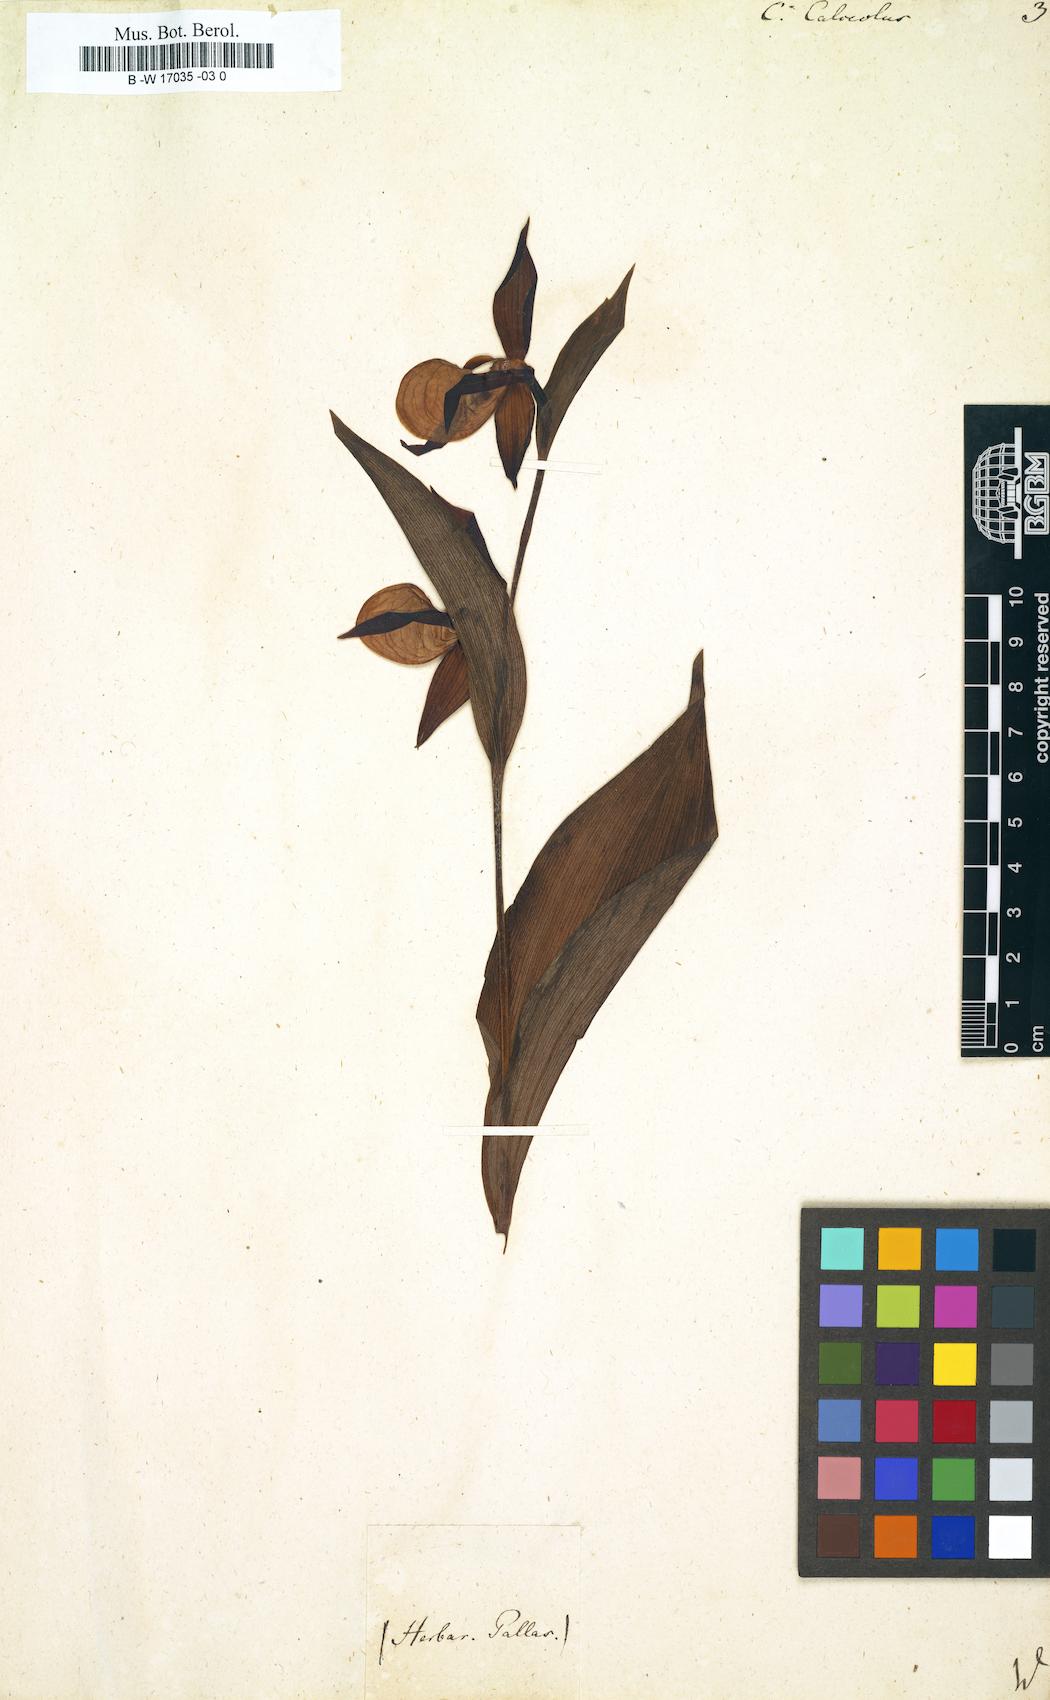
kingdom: Plantae
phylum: Tracheophyta
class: Liliopsida
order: Asparagales
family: Orchidaceae
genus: Cypripedium
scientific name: Cypripedium calceolus
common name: Lady's-slipper
